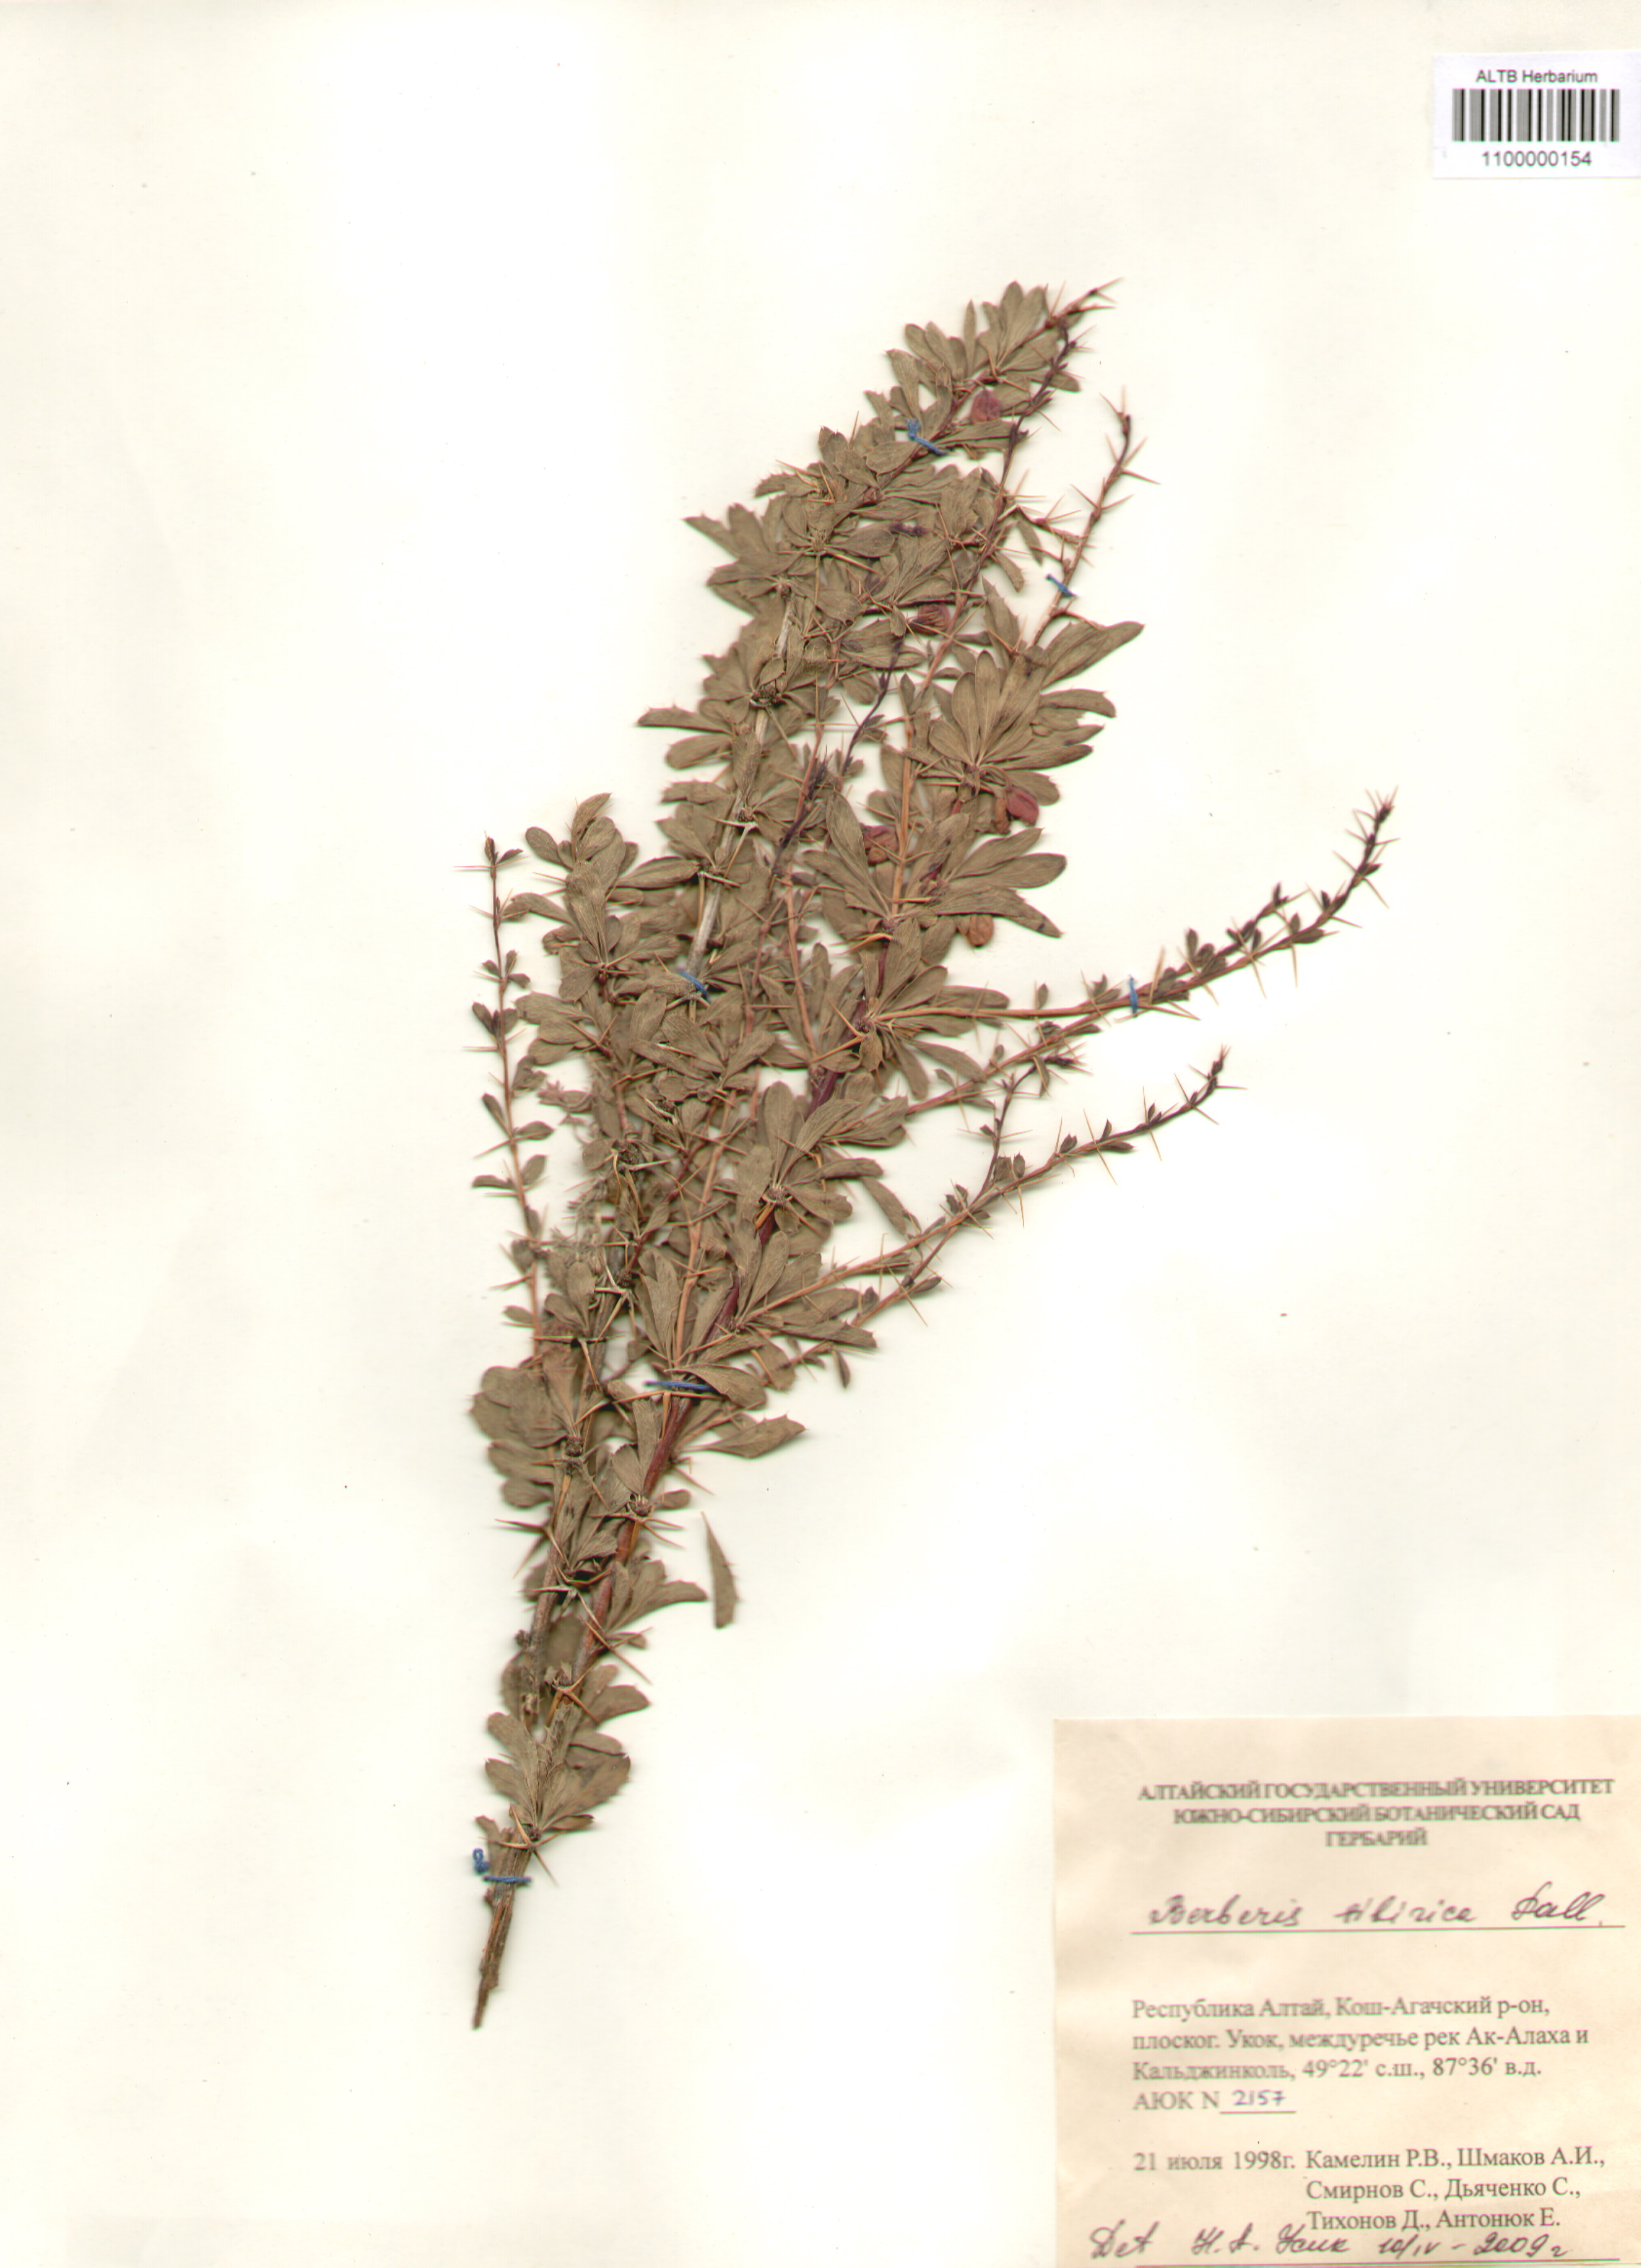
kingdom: Plantae
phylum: Tracheophyta
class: Magnoliopsida
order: Ranunculales
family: Berberidaceae
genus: Berberis
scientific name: Berberis sibirica
